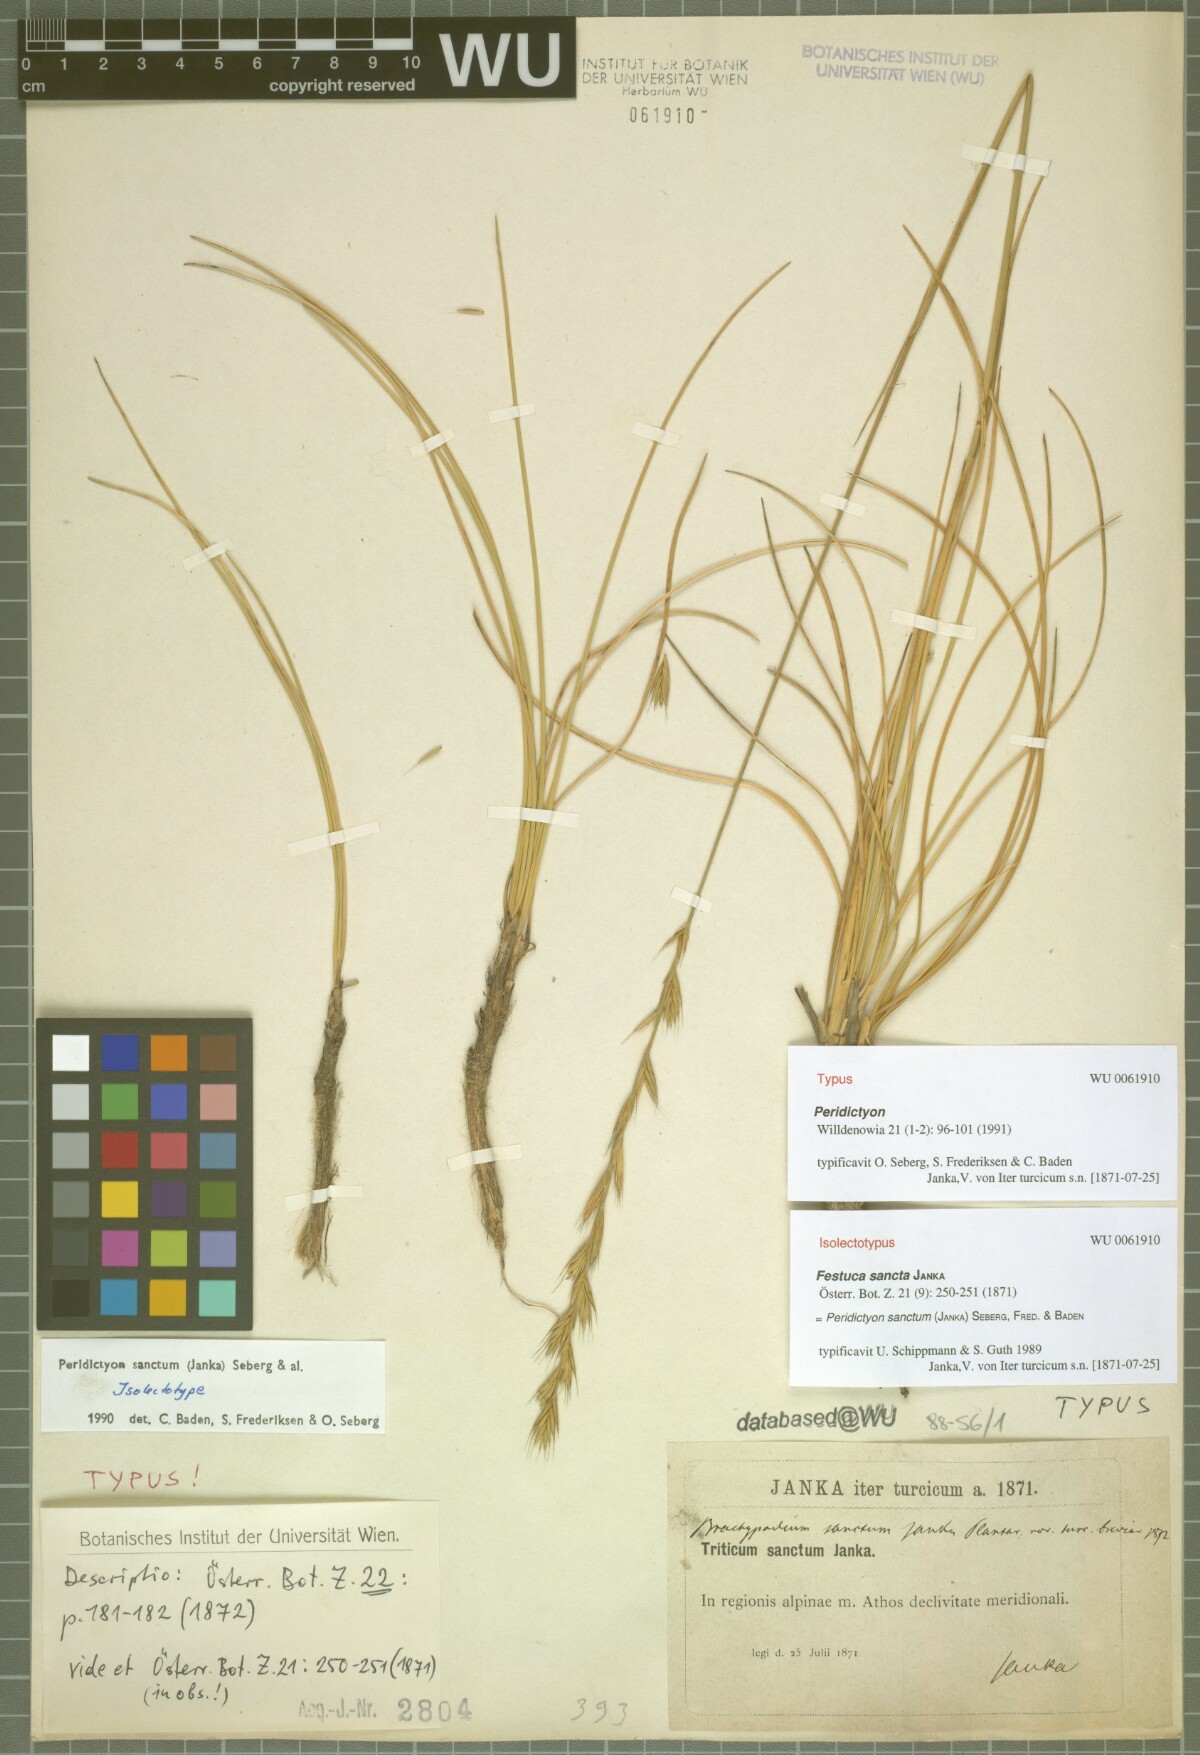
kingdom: Plantae
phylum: Tracheophyta
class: Liliopsida
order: Poales
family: Poaceae
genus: Peridictyon
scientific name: Peridictyon sanctum
